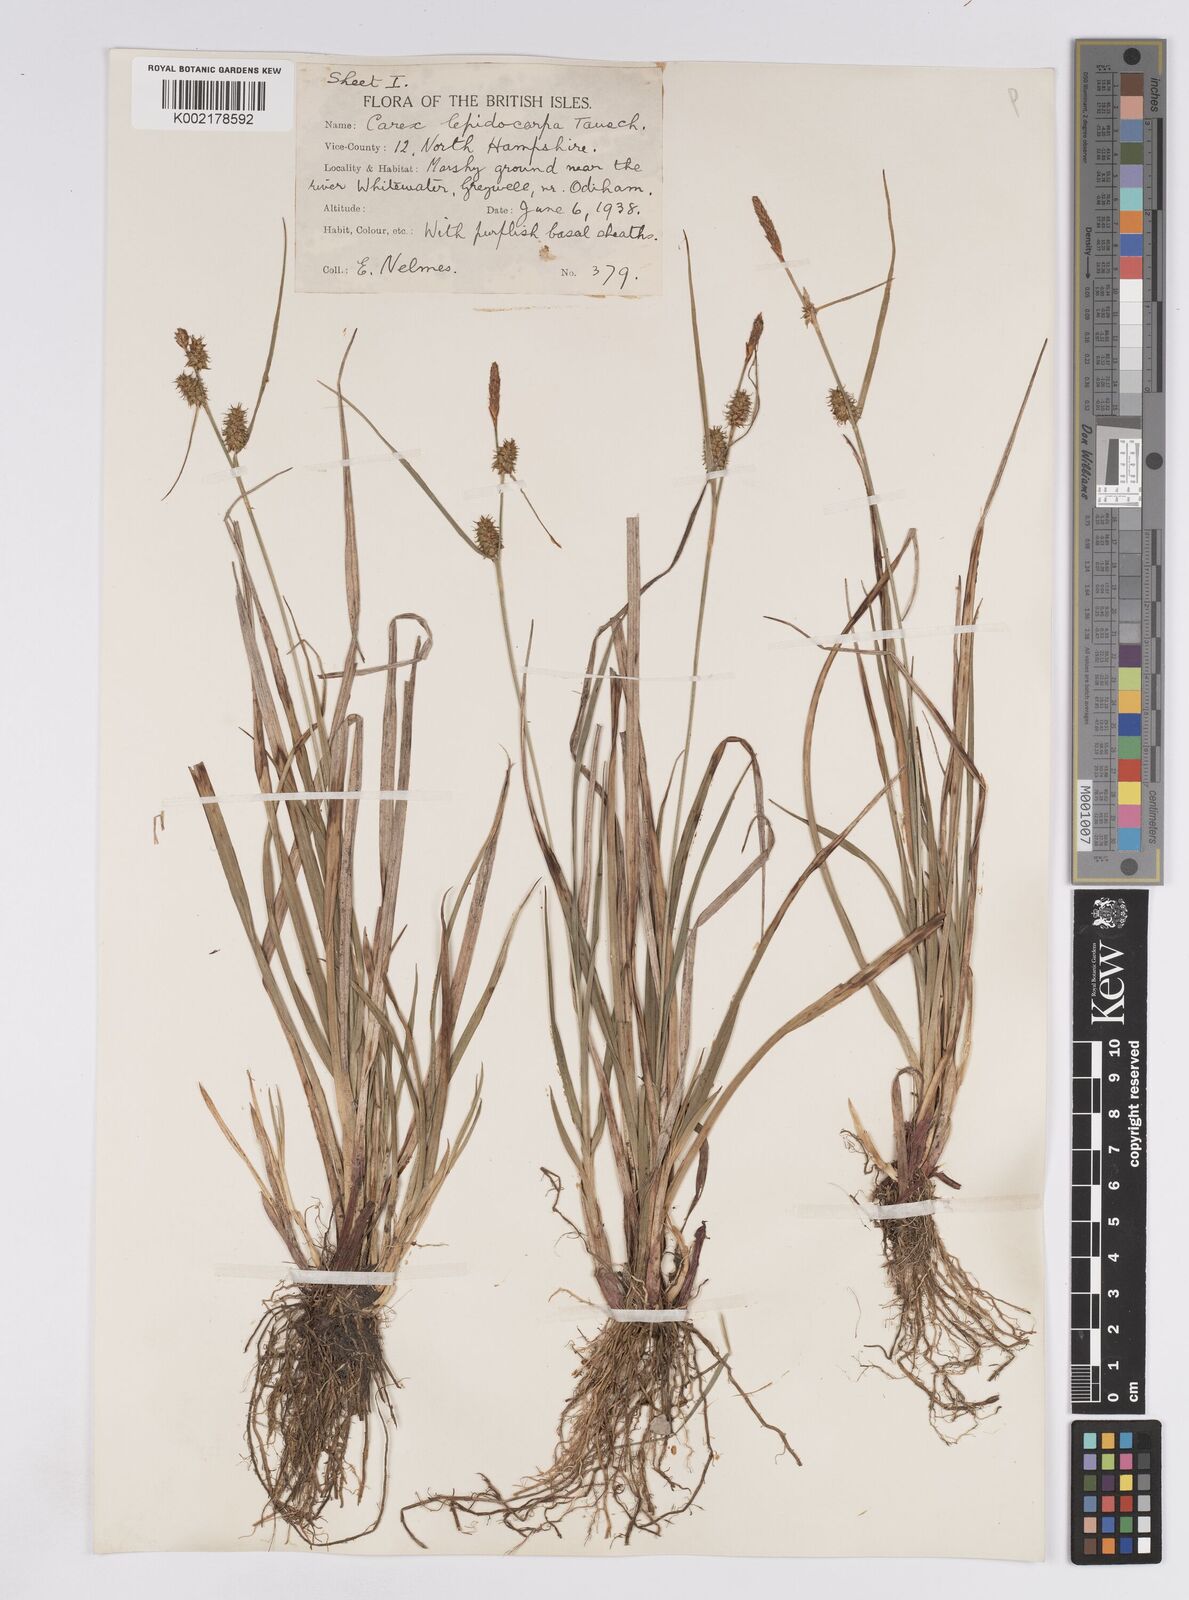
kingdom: Plantae
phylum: Tracheophyta
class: Liliopsida
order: Poales
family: Cyperaceae
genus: Carex
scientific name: Carex lepidocarpa
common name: Long-stalked yellow-sedge
